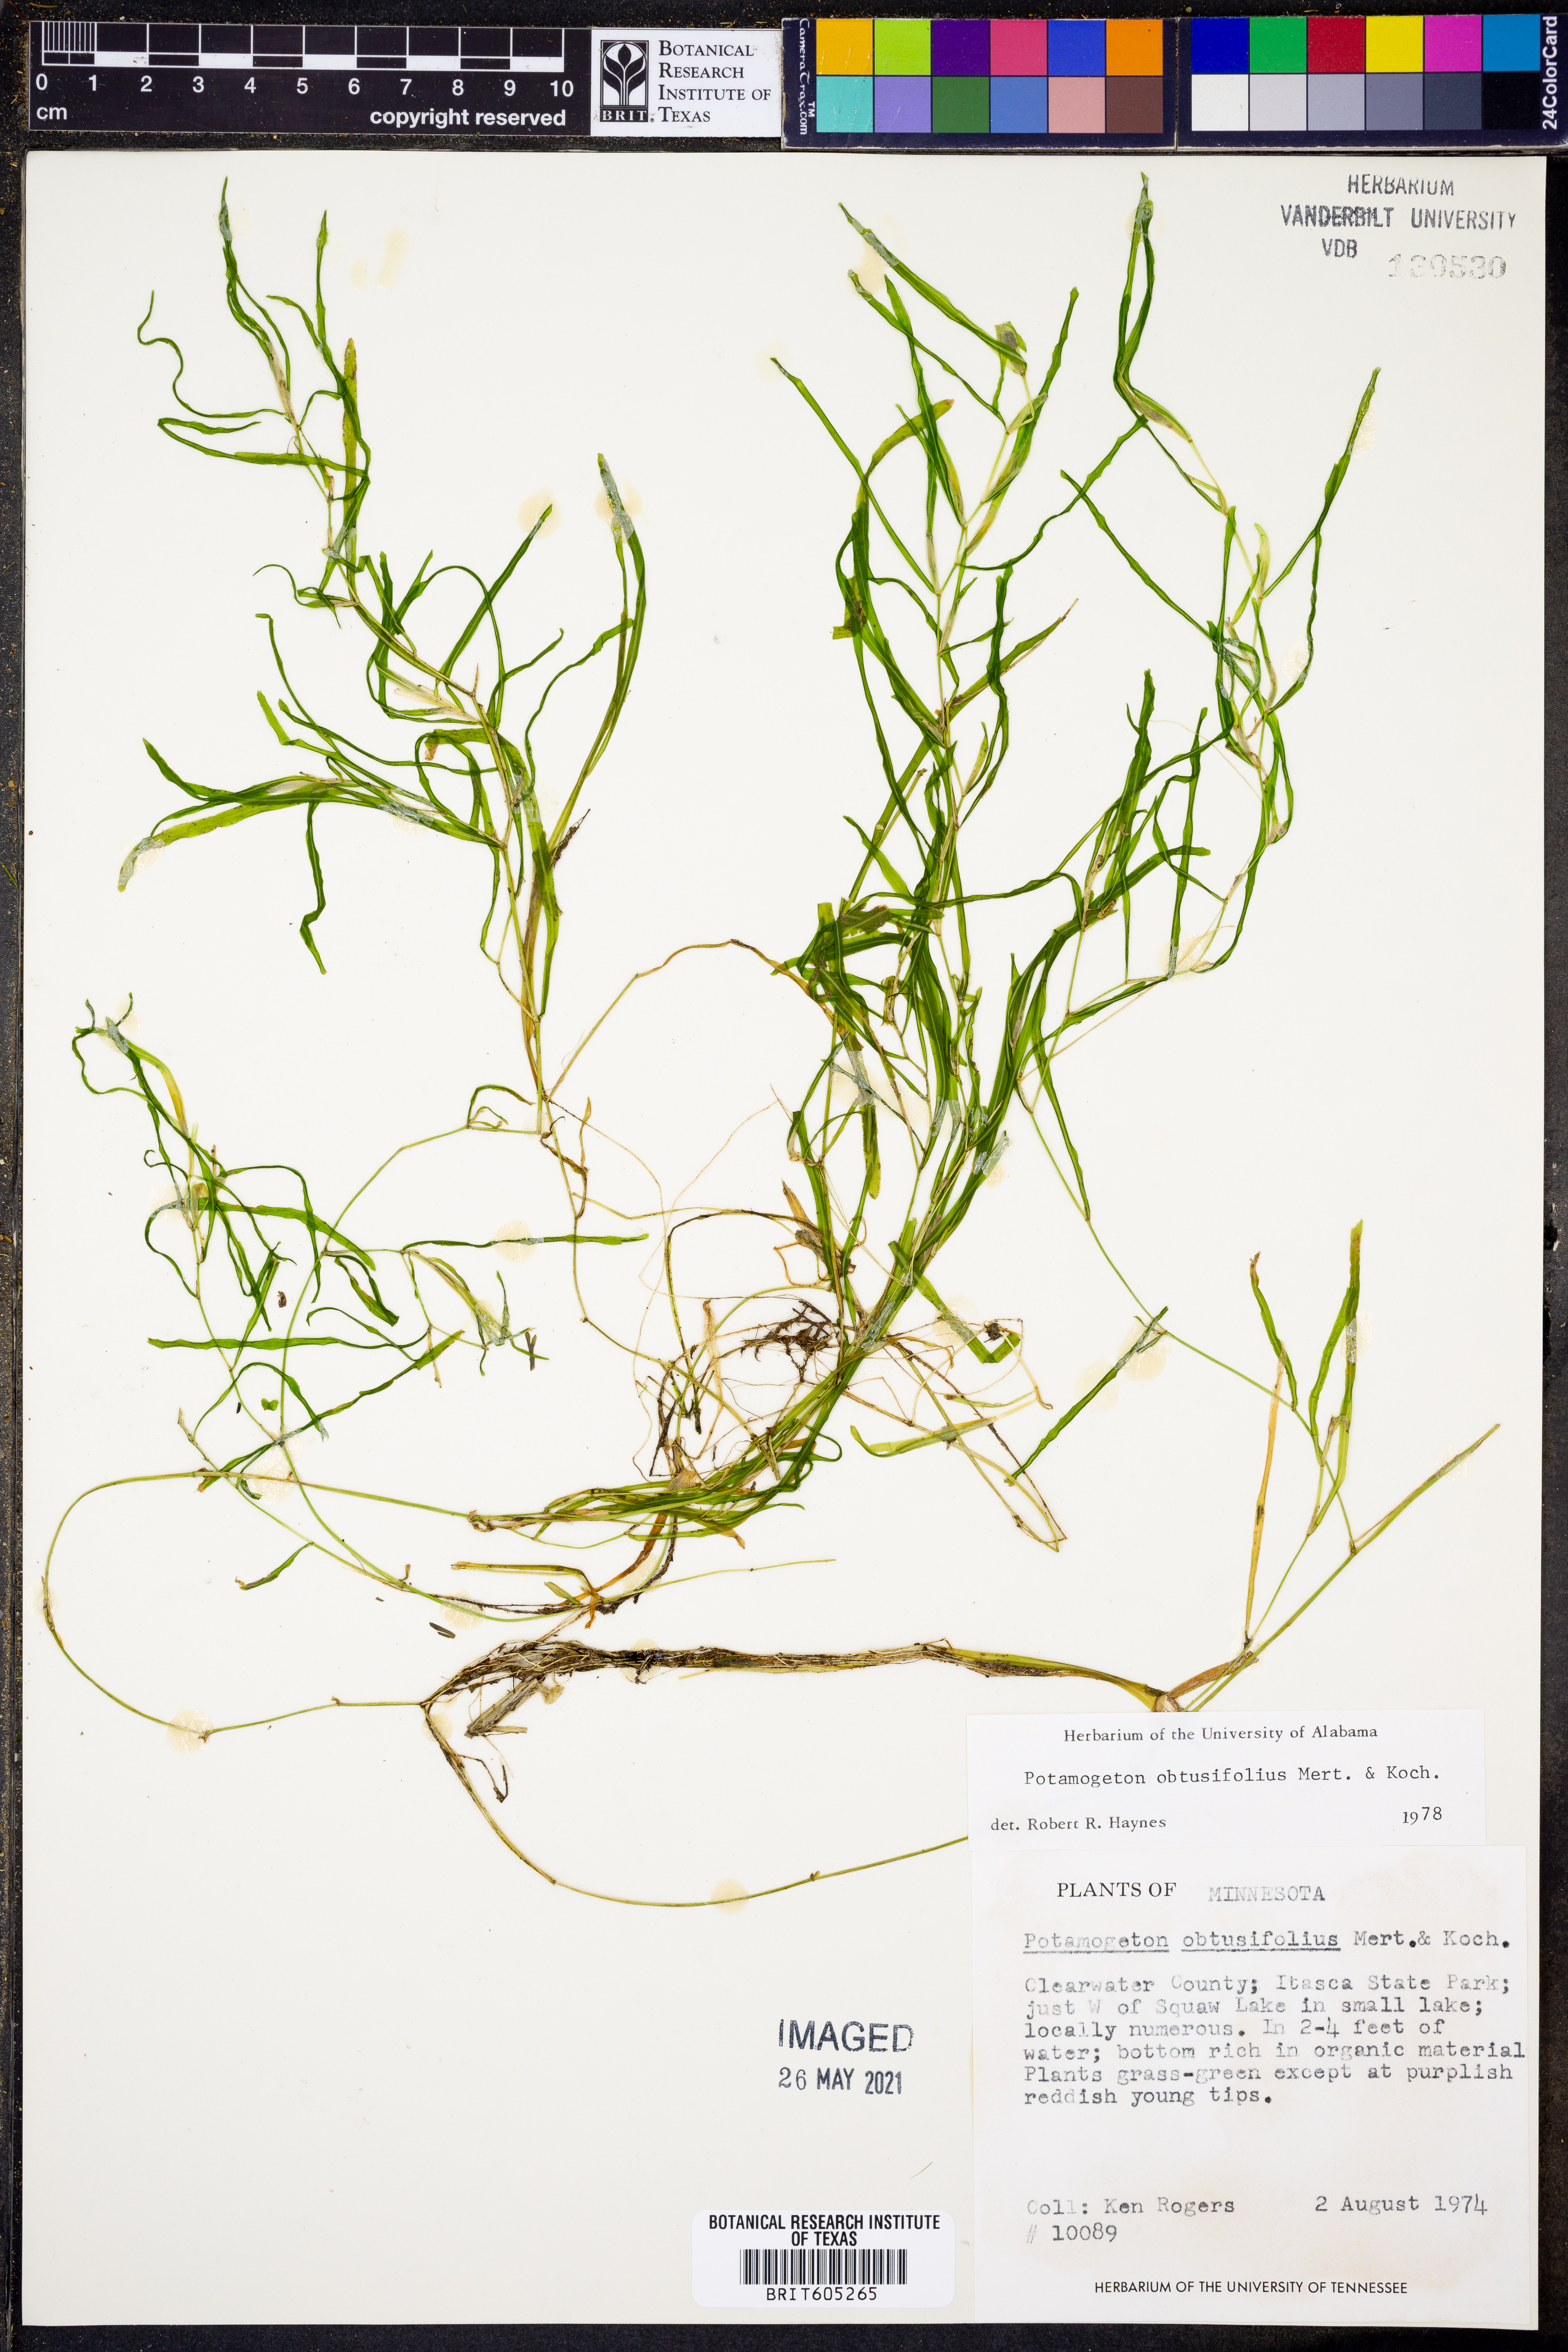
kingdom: Plantae
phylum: Tracheophyta
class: Liliopsida
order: Alismatales
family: Potamogetonaceae
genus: Potamogeton
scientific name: Potamogeton obtusifolius
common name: Blunt-leaved pondweed
